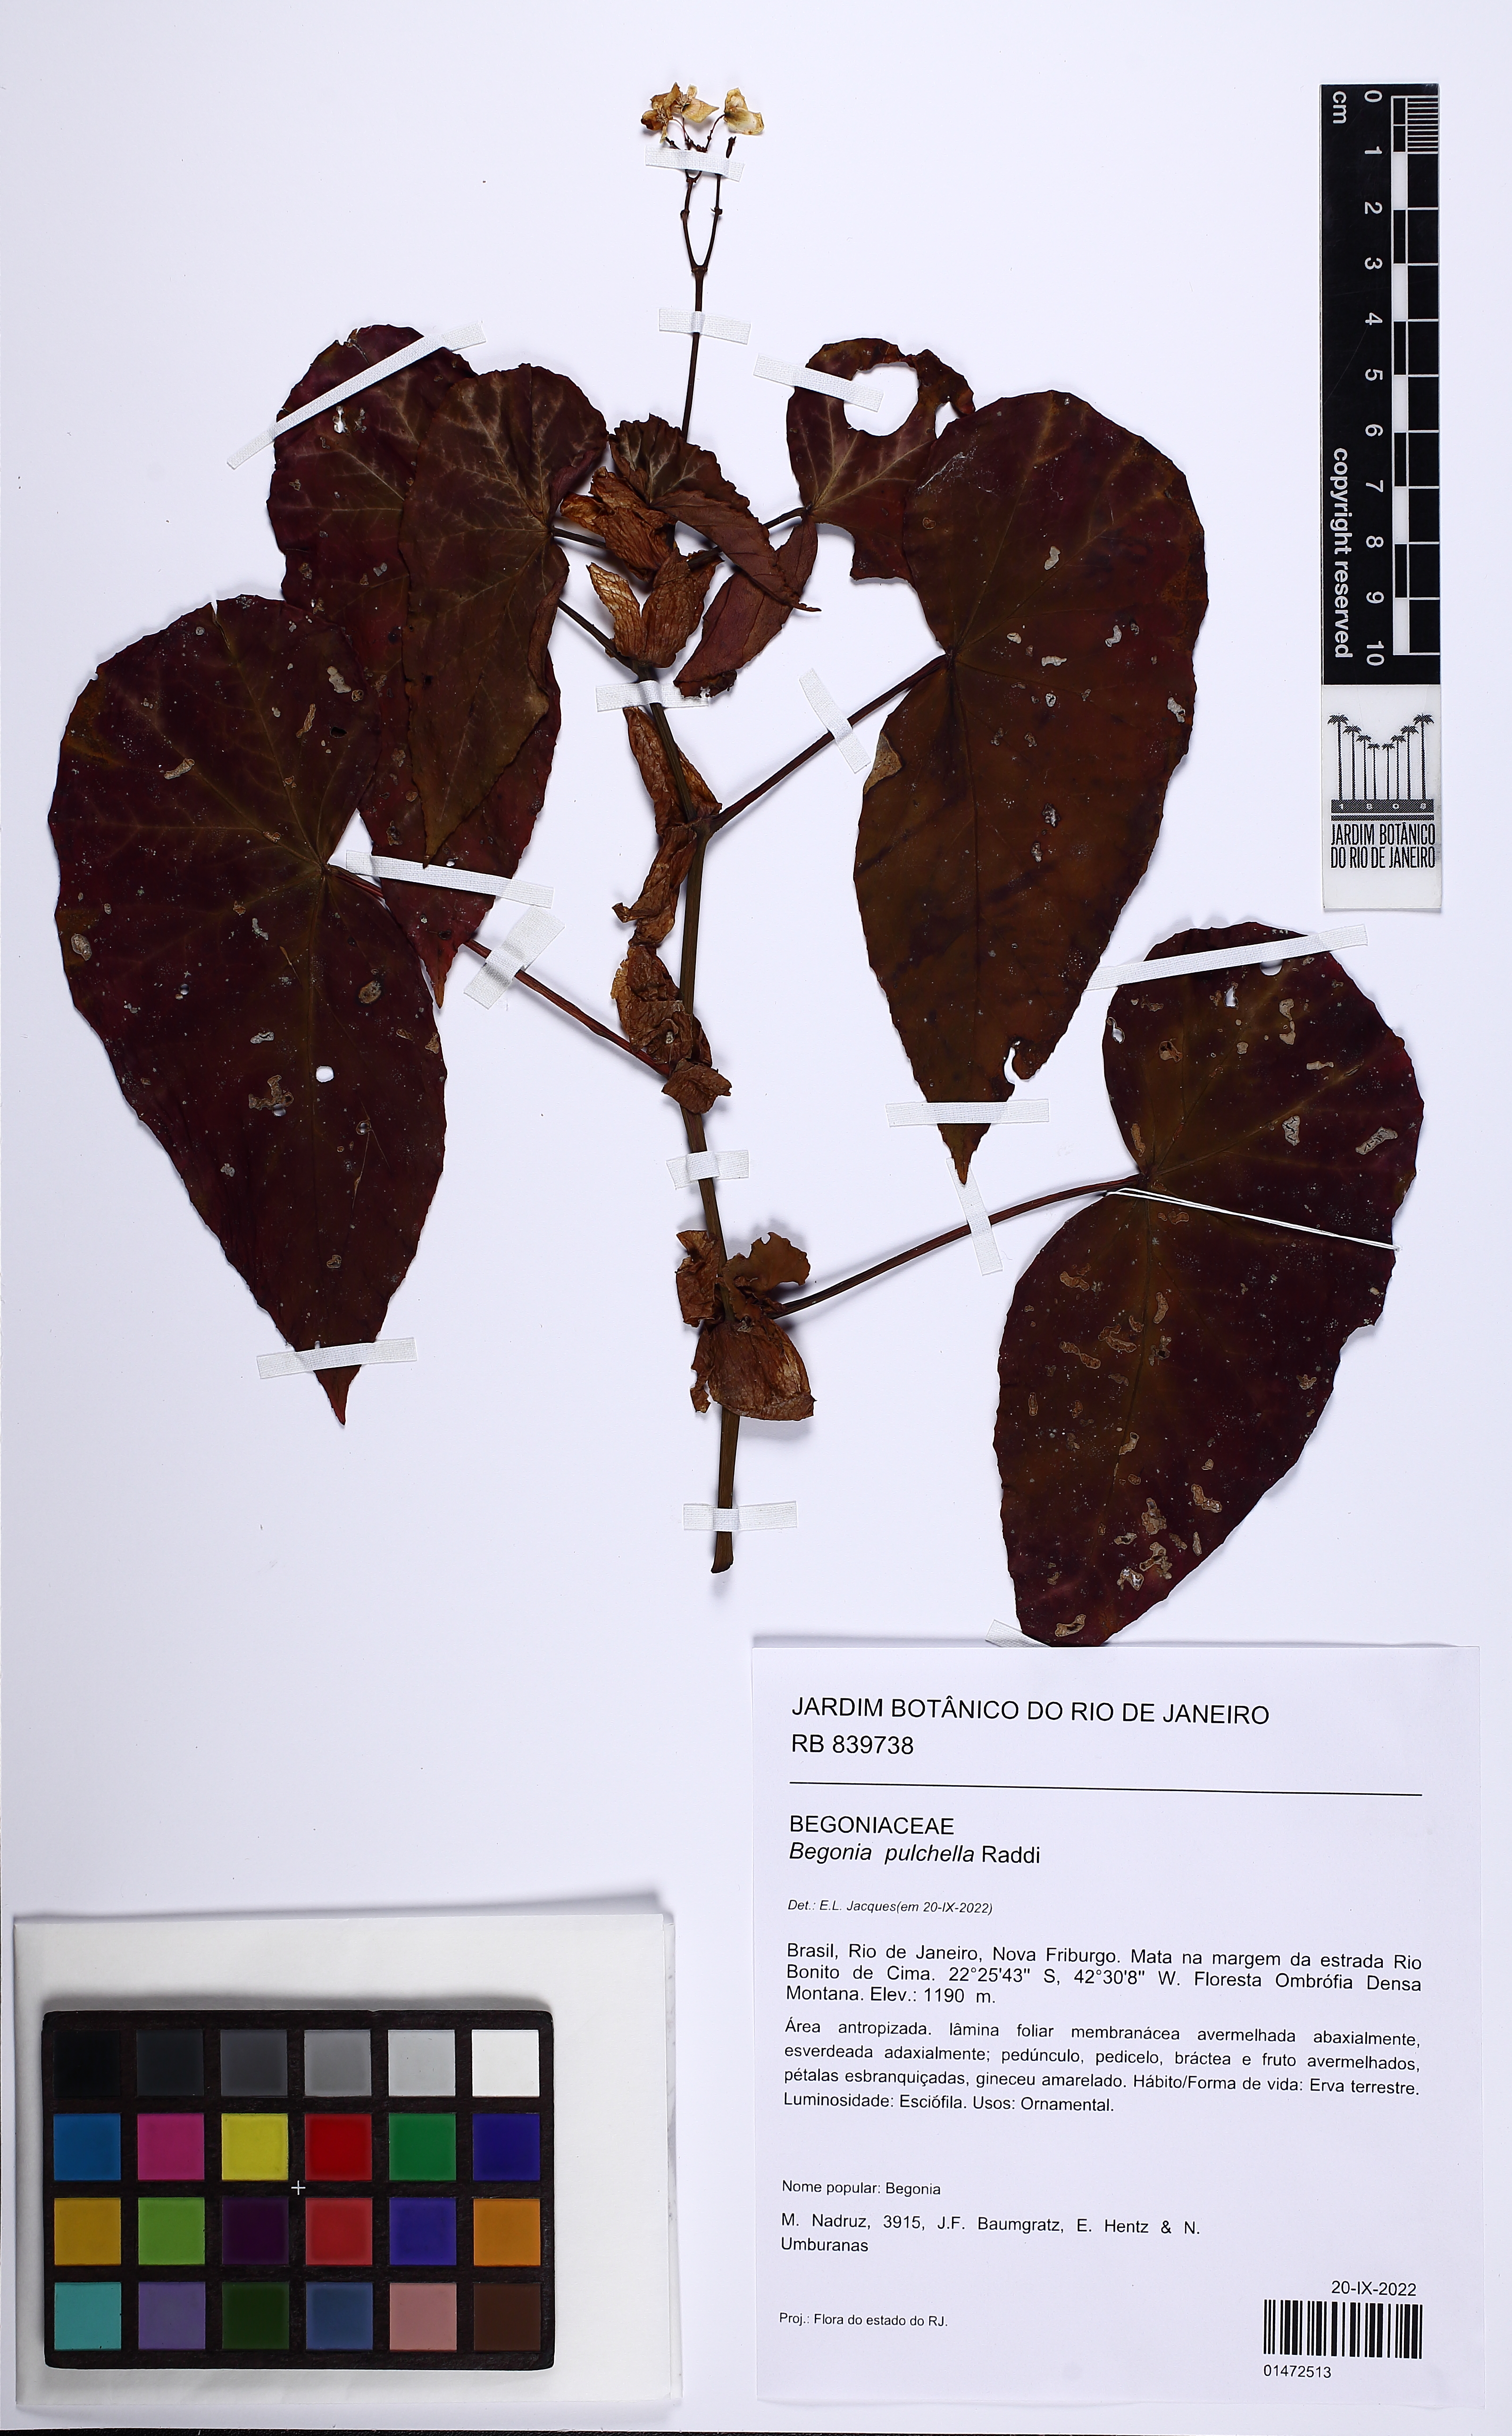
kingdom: Plantae
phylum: Tracheophyta
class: Magnoliopsida
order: Cucurbitales
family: Begoniaceae
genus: Begonia
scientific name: Begonia pulchella
